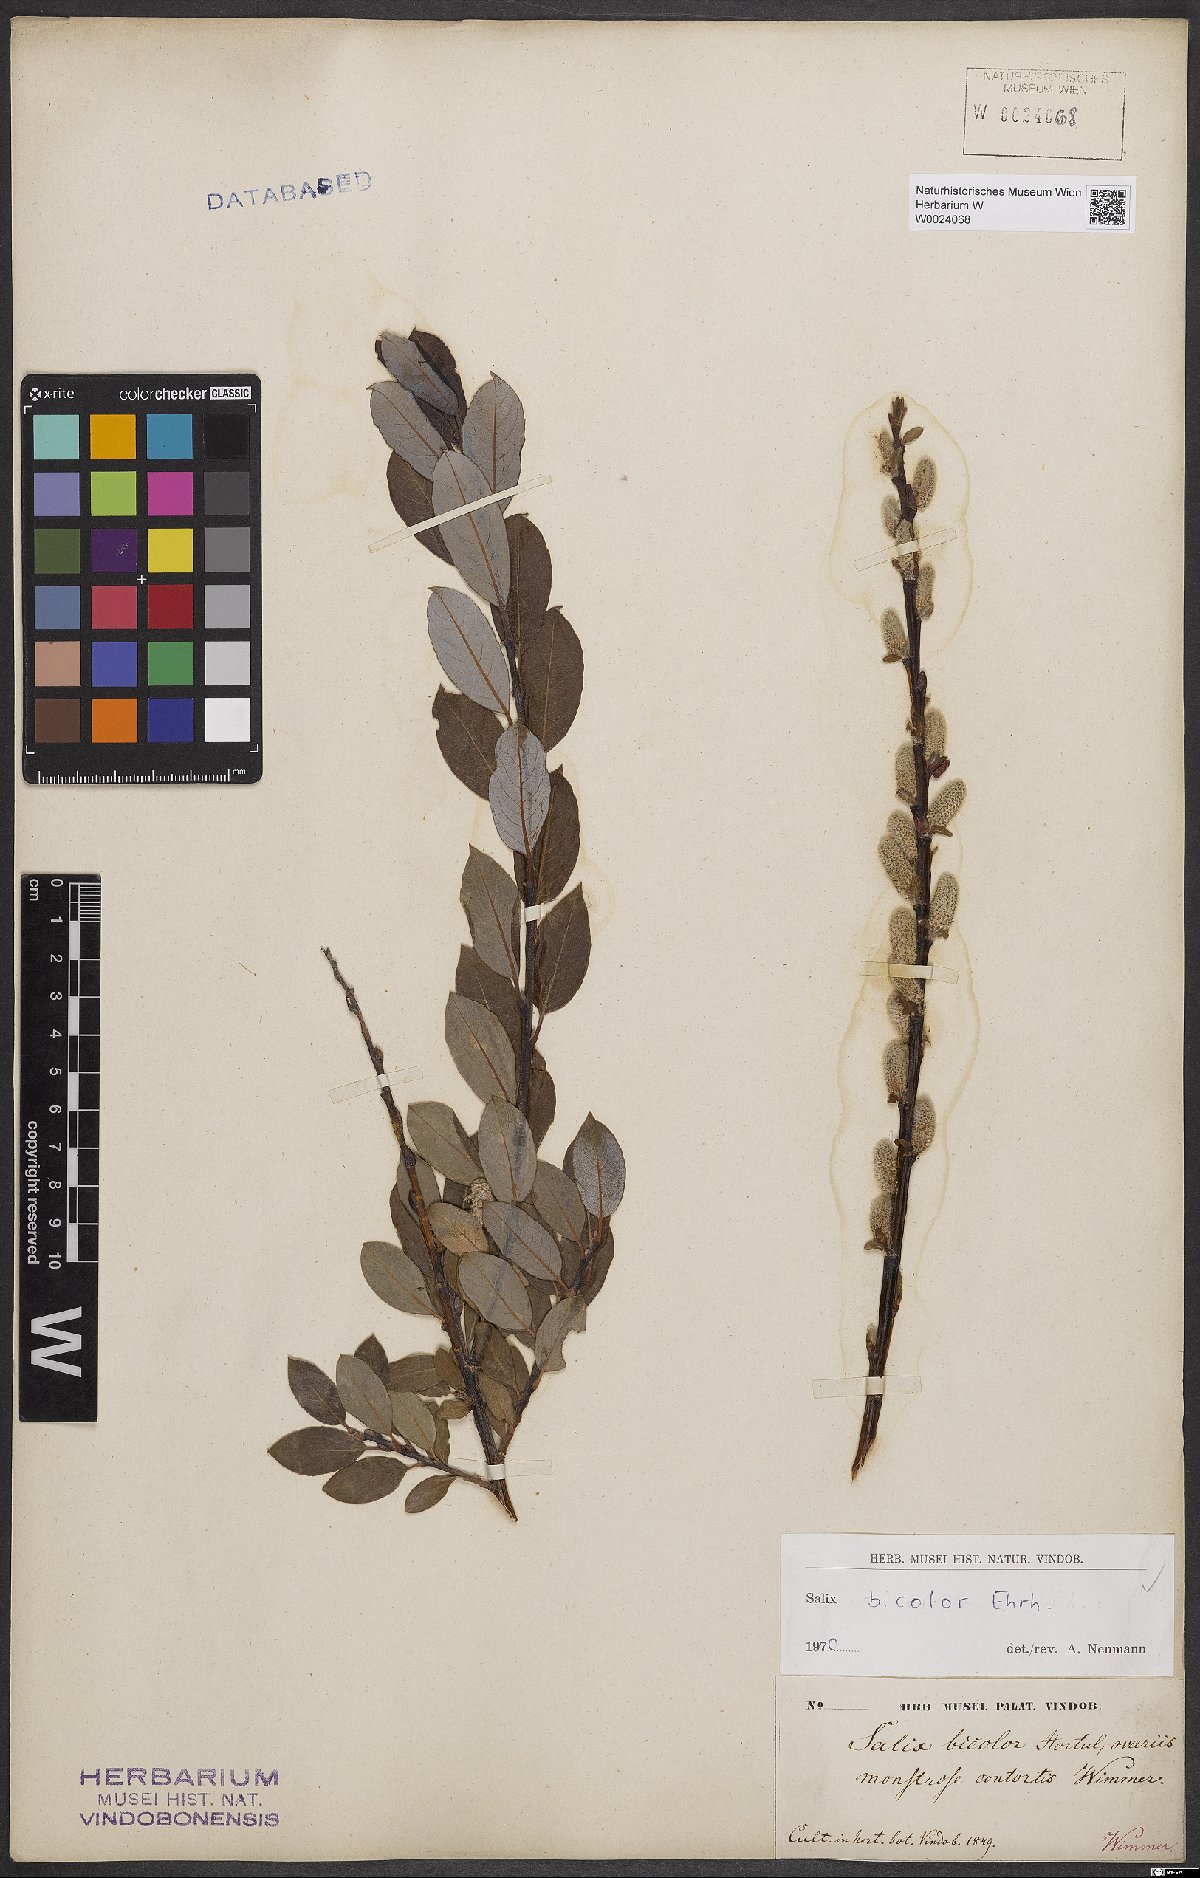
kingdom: Plantae
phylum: Tracheophyta
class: Magnoliopsida
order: Malpighiales
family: Salicaceae
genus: Salix
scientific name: Salix bicolor
